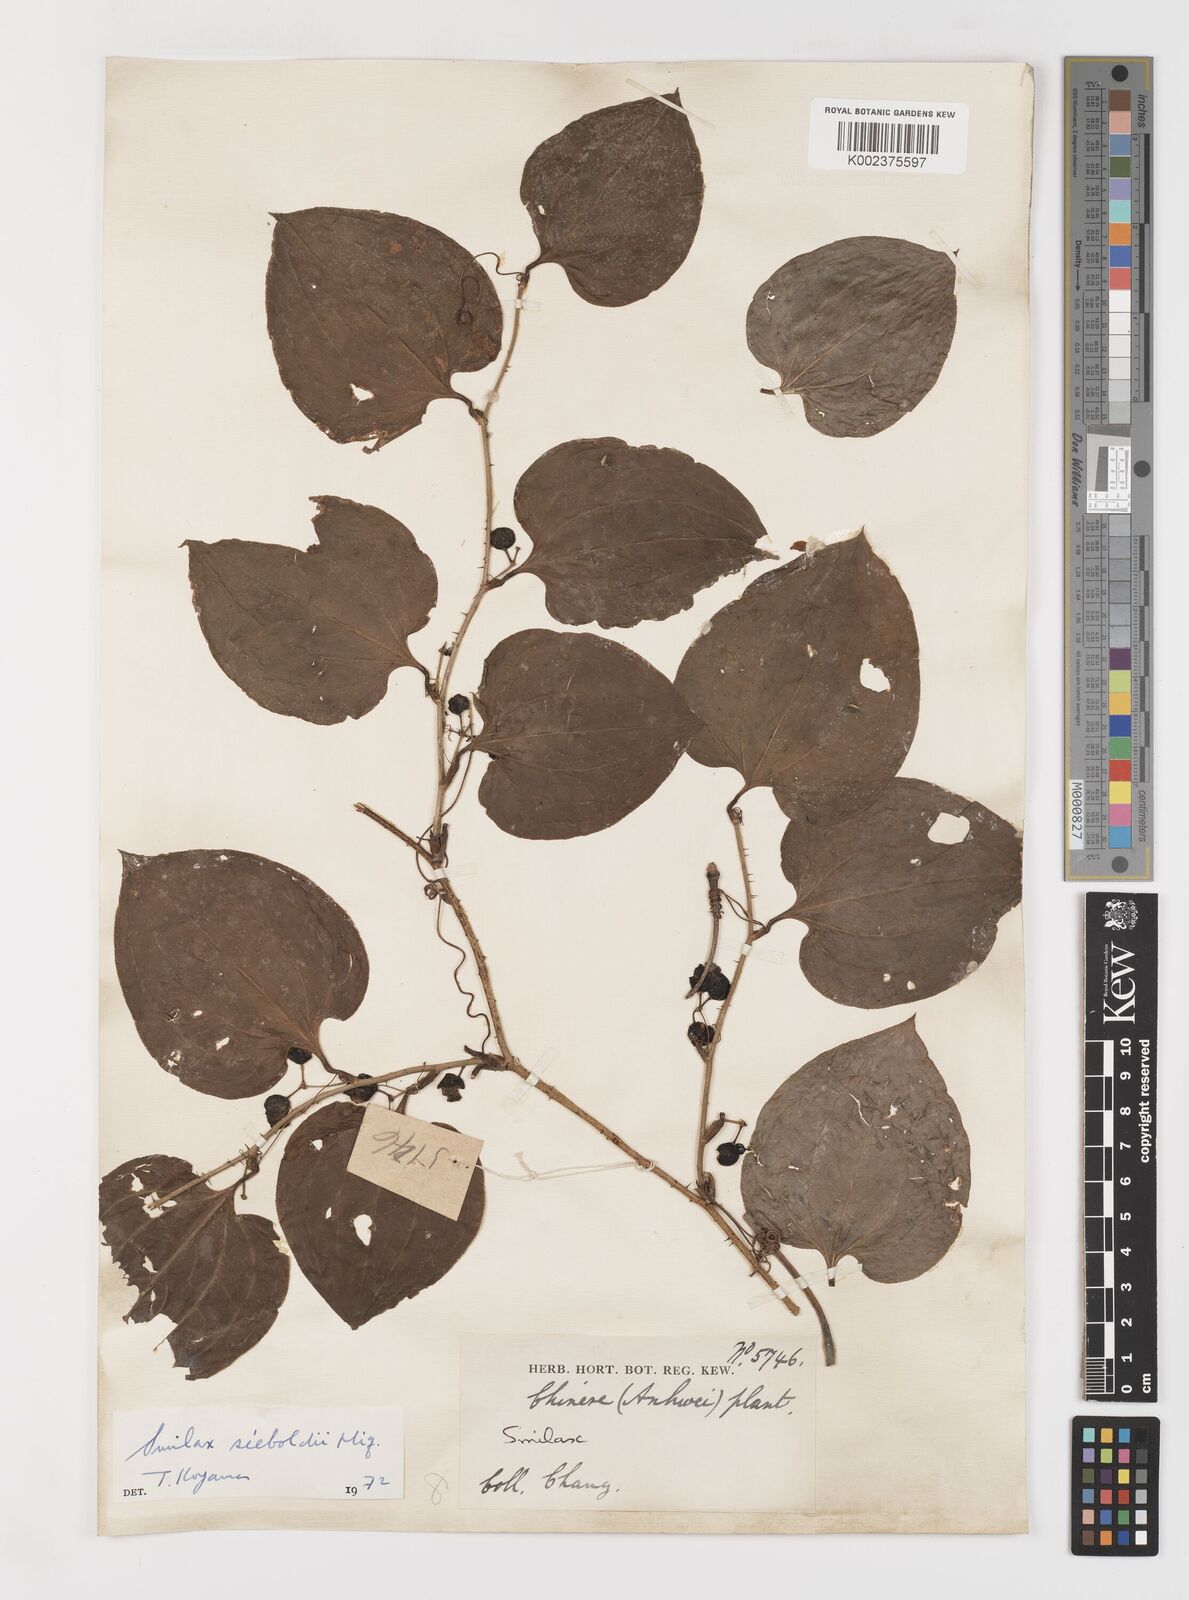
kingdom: Plantae
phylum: Tracheophyta
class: Liliopsida
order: Liliales
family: Smilacaceae
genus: Smilax
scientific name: Smilax sieboldii
